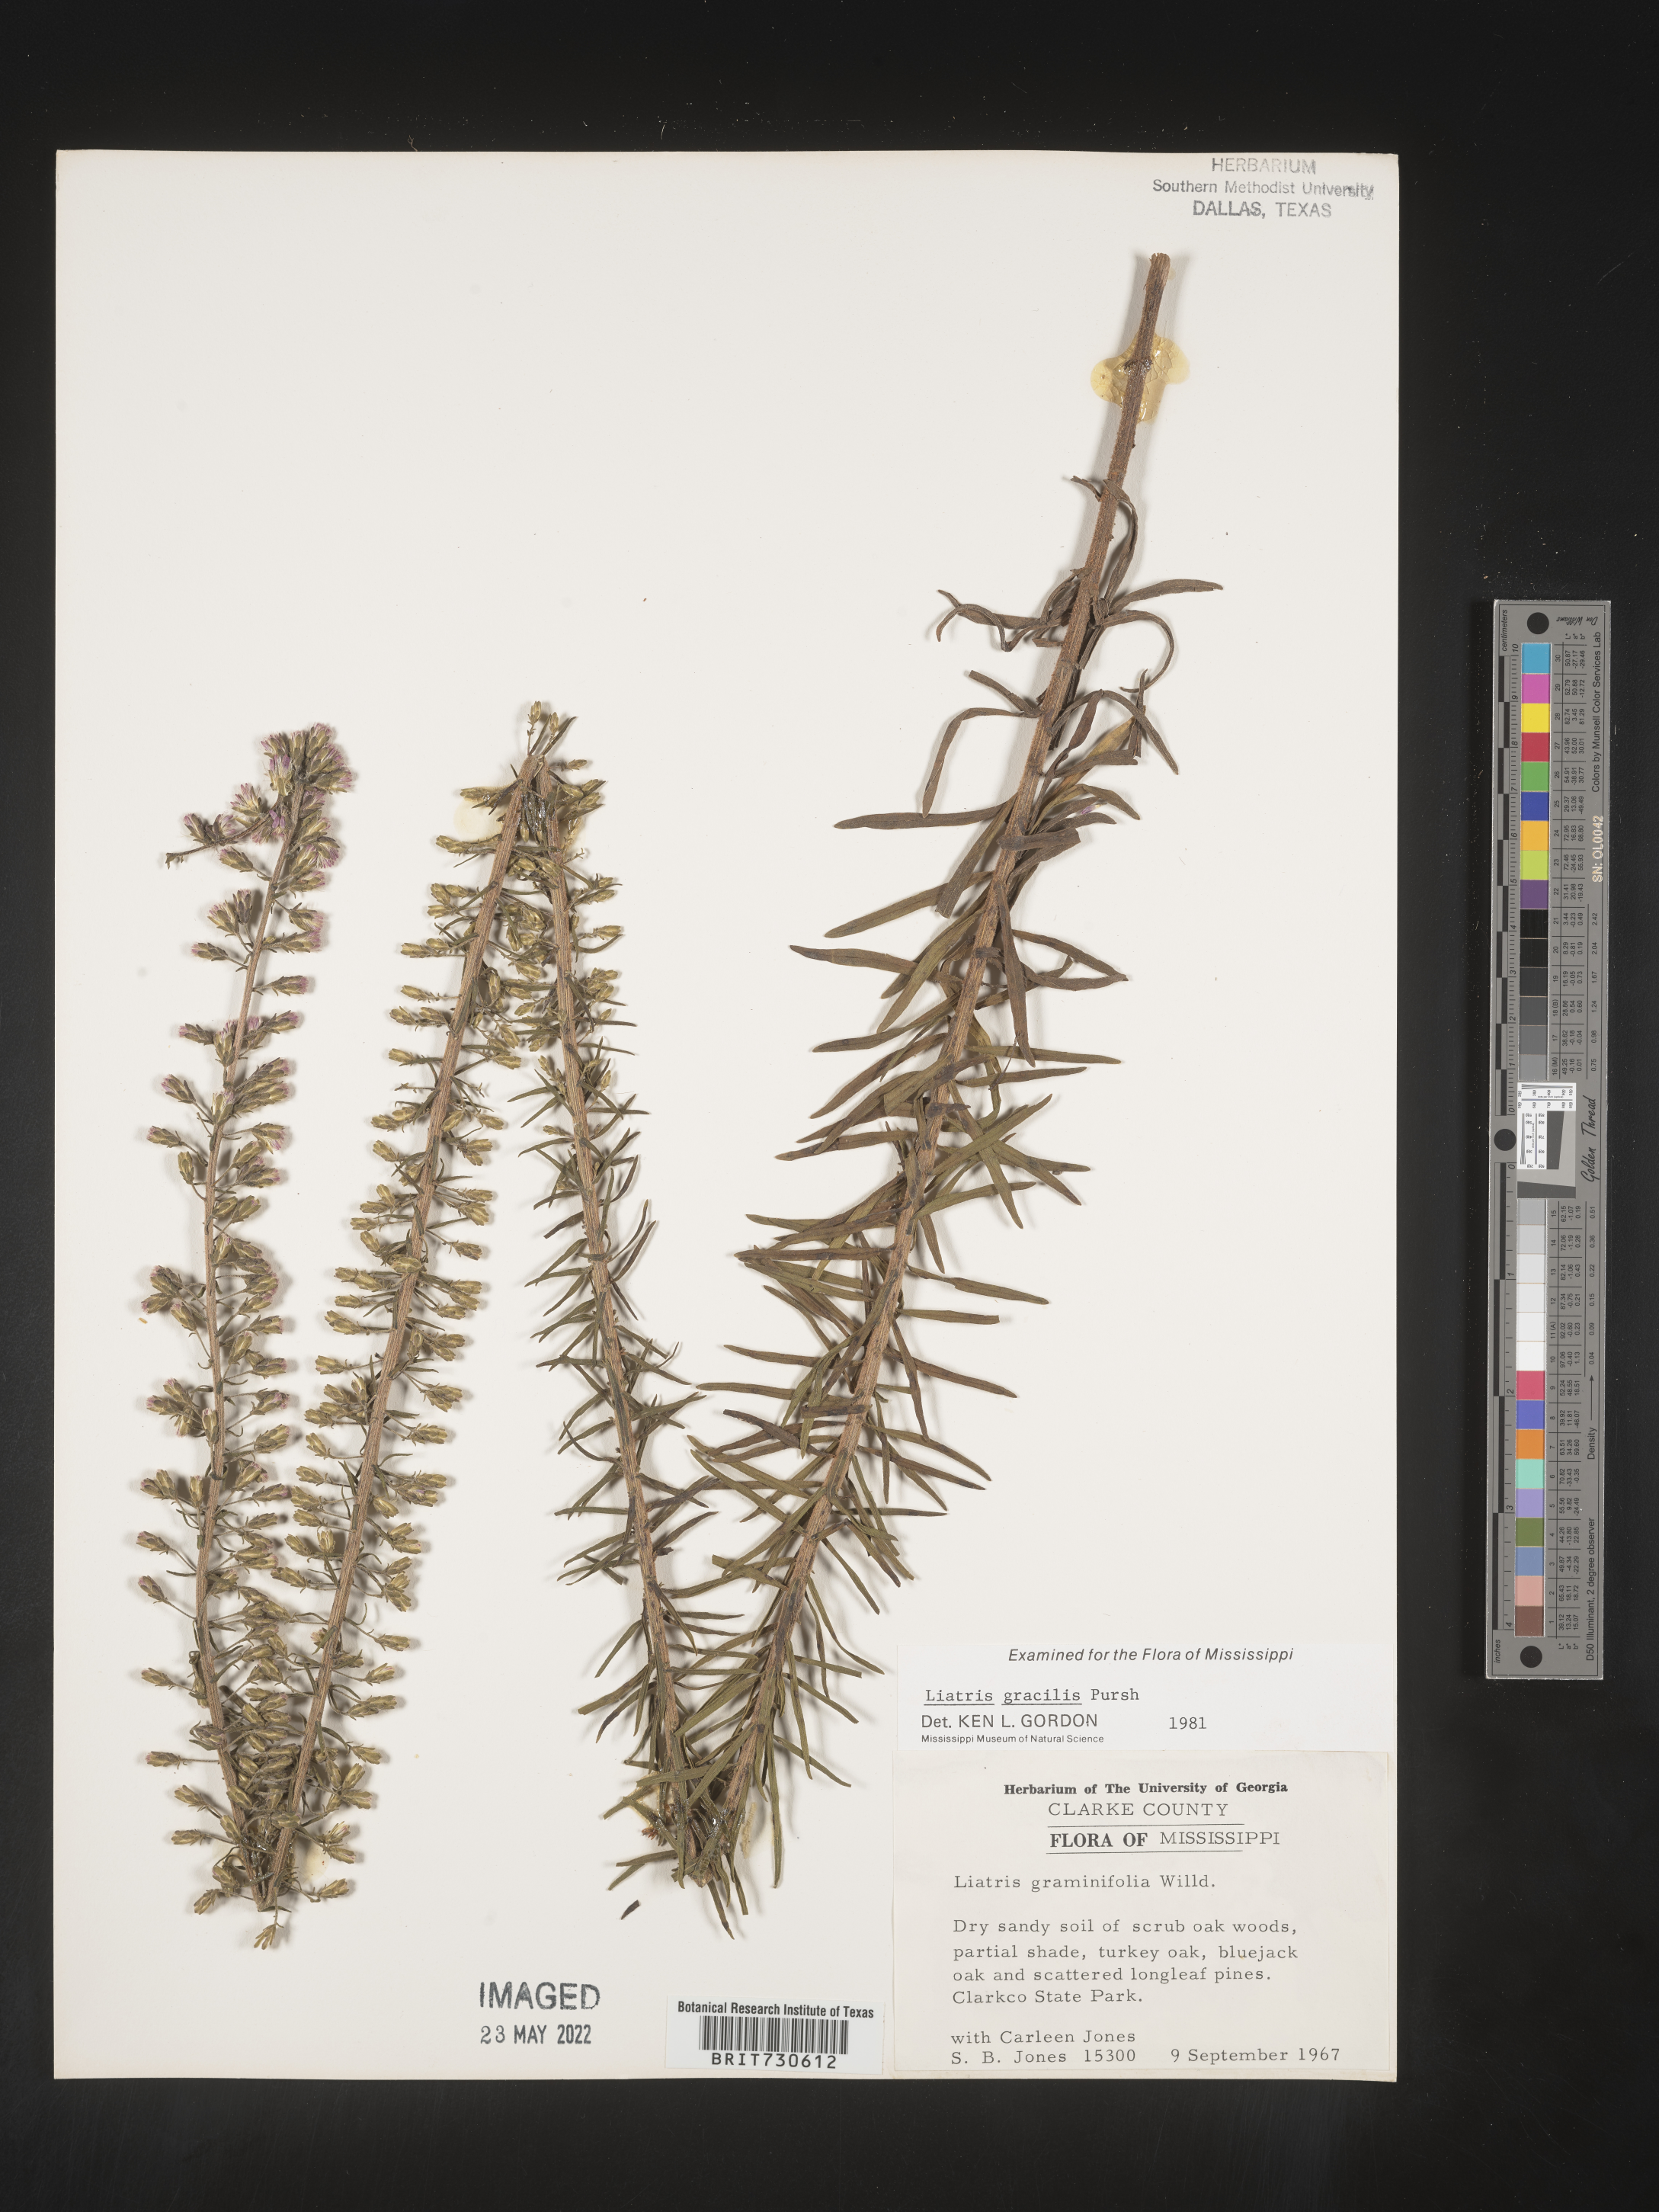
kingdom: Plantae
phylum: Tracheophyta
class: Magnoliopsida
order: Asterales
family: Asteraceae
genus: Liatris
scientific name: Liatris gracilis
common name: Slender gayfeather
